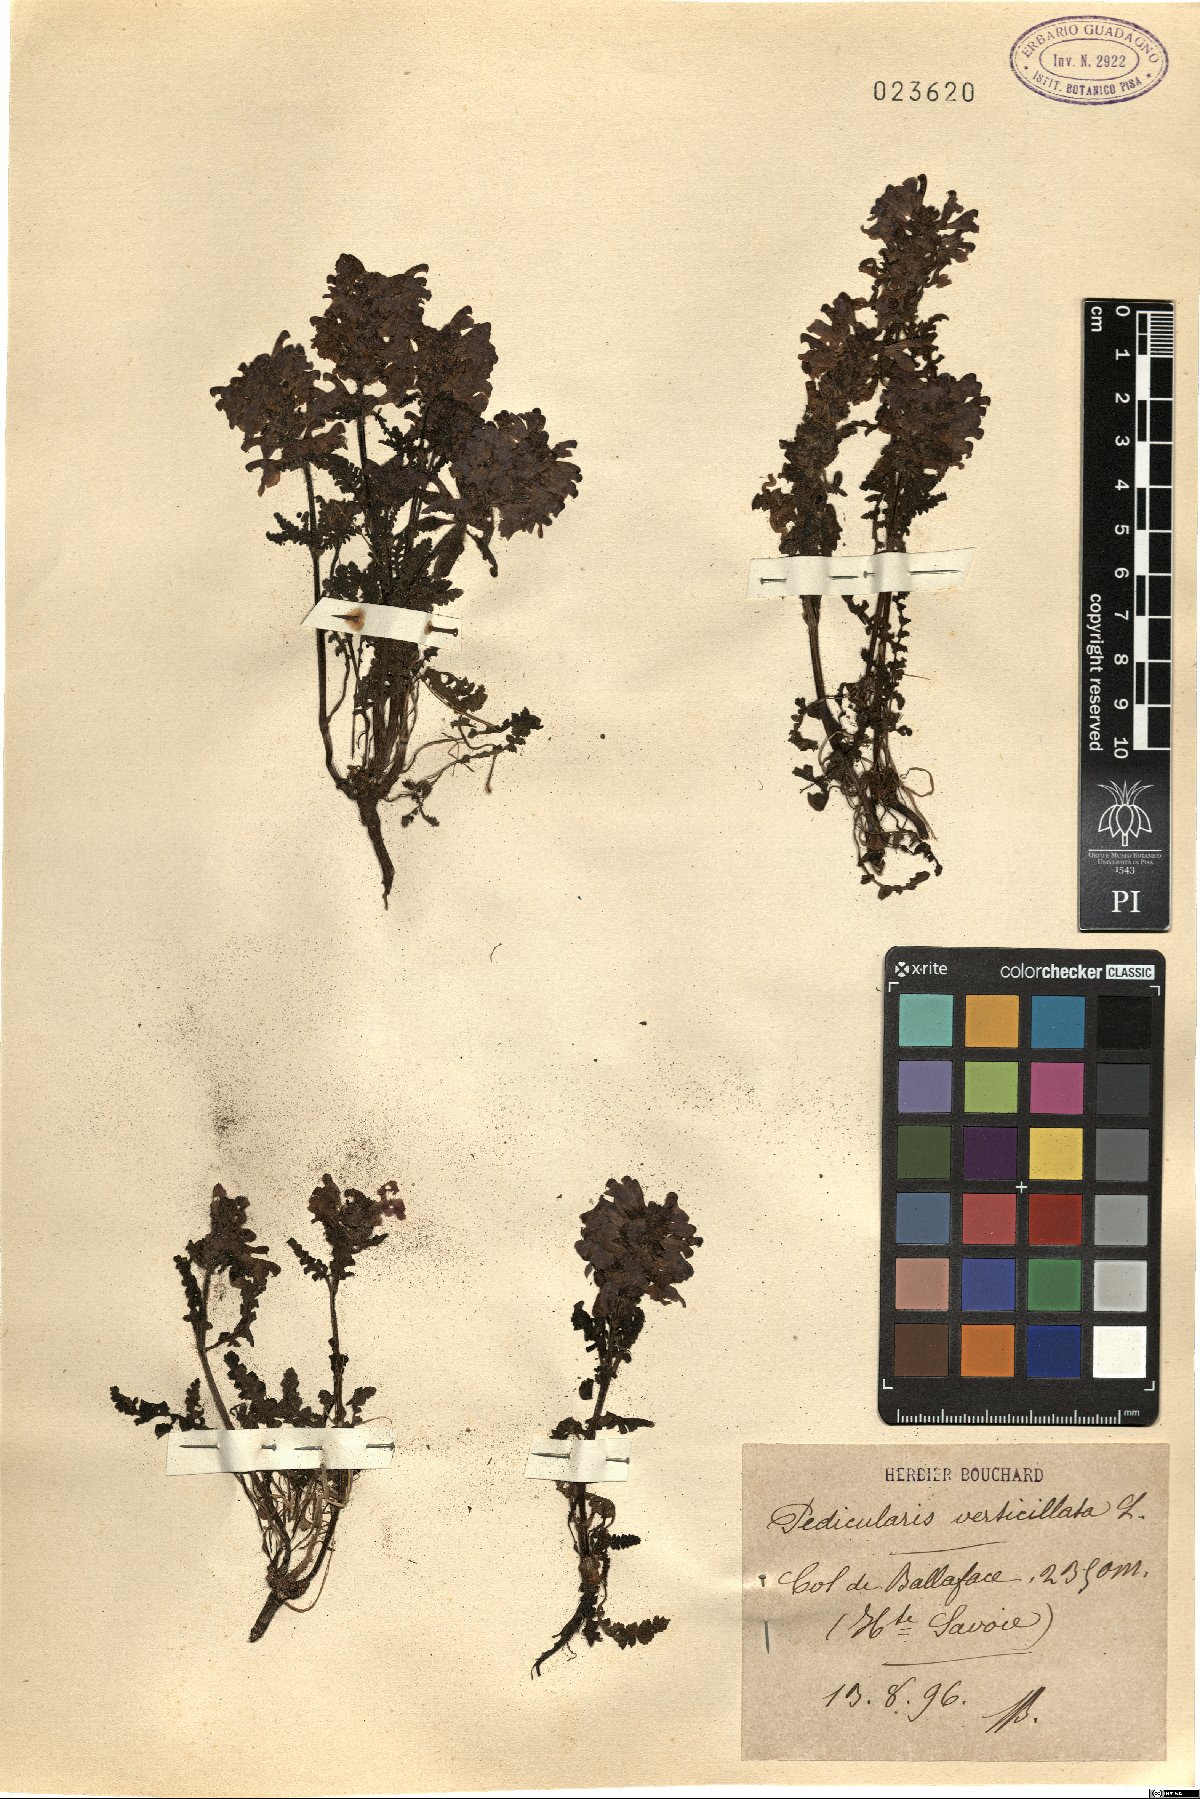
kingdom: Plantae
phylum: Tracheophyta
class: Magnoliopsida
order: Lamiales
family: Orobanchaceae
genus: Pedicularis
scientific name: Pedicularis verticillata
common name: Whorled lousewort
